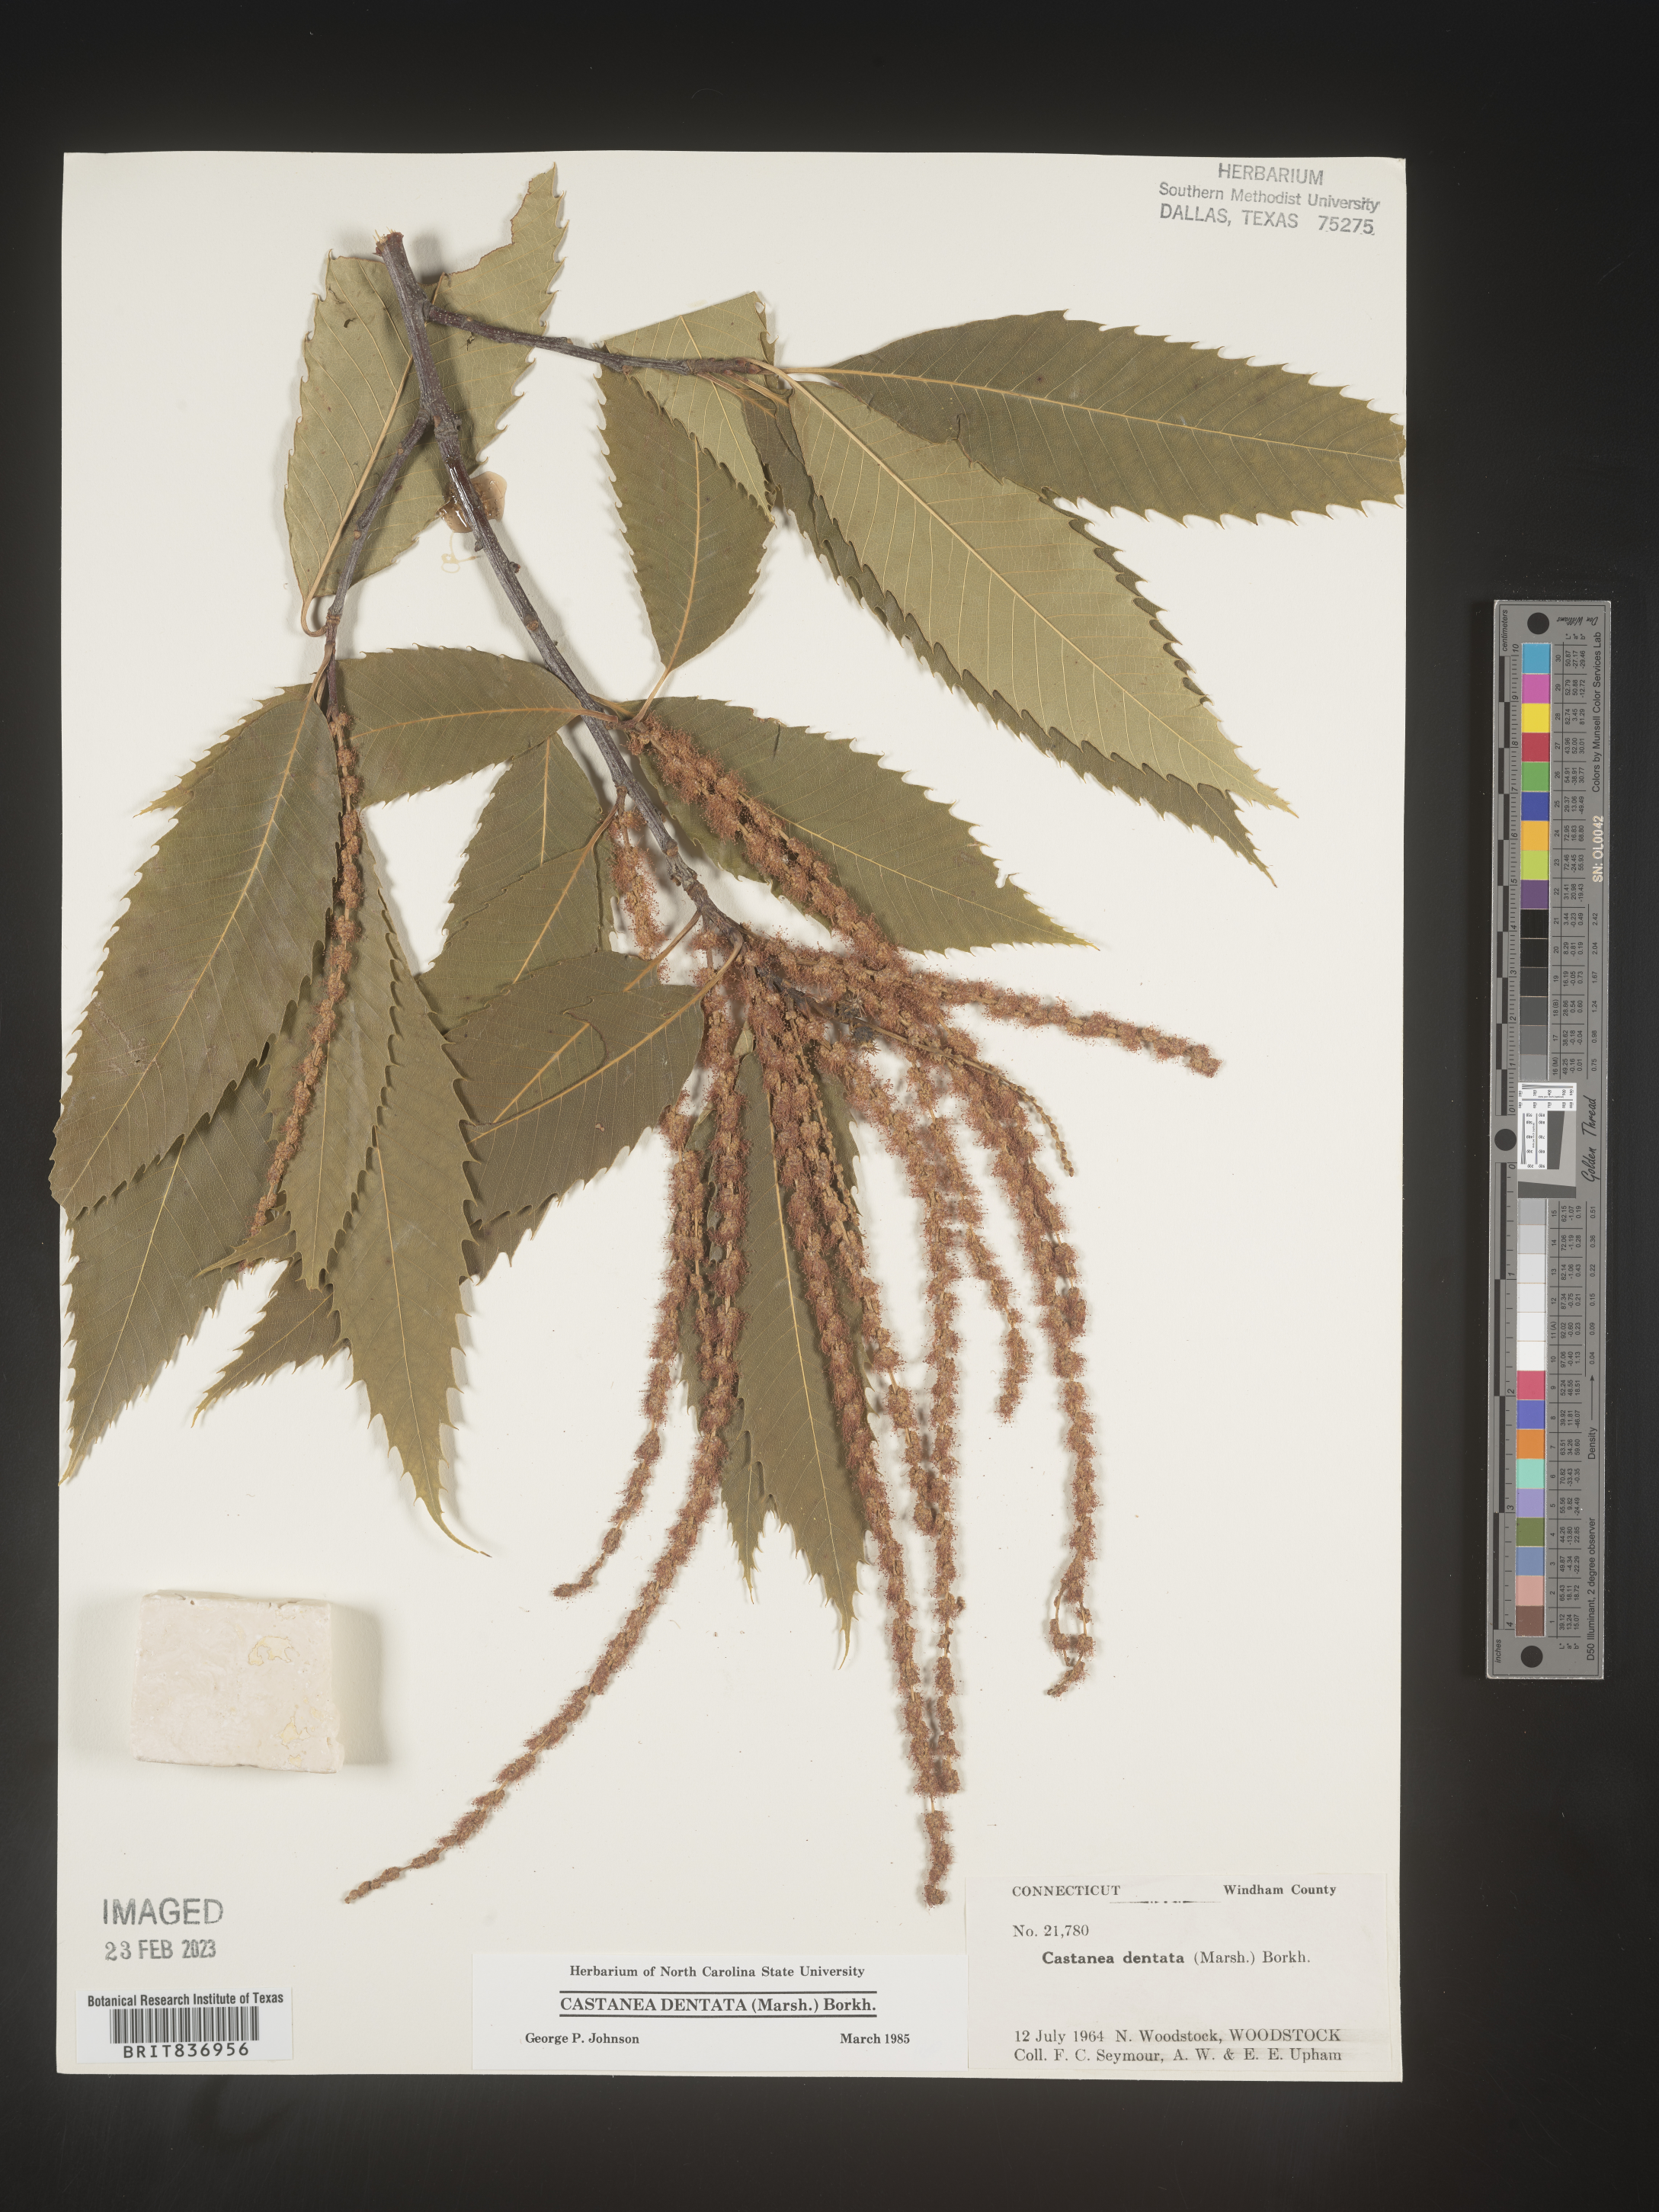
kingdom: Plantae
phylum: Tracheophyta
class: Magnoliopsida
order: Fagales
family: Fagaceae
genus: Castanea
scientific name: Castanea dentata
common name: American chestnut
